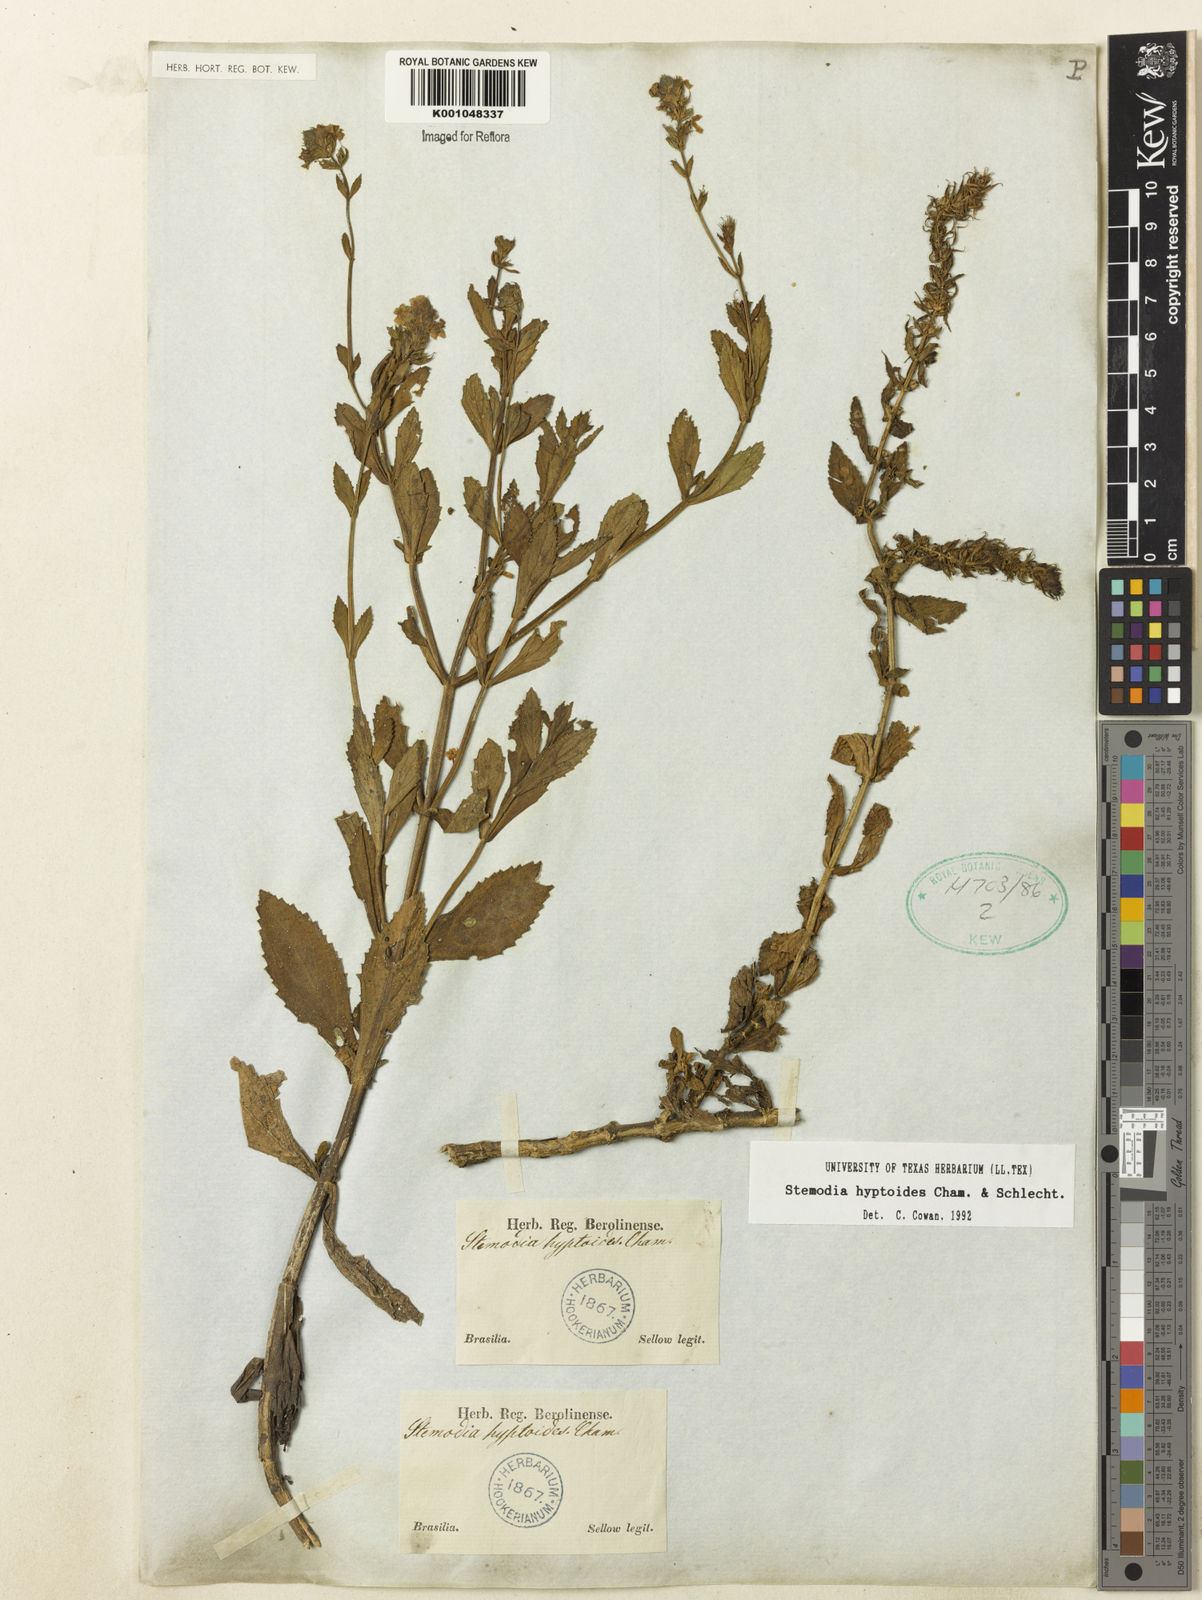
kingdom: Plantae
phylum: Tracheophyta
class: Magnoliopsida
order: Lamiales
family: Plantaginaceae
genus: Stemodia
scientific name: Stemodia hyptoides
